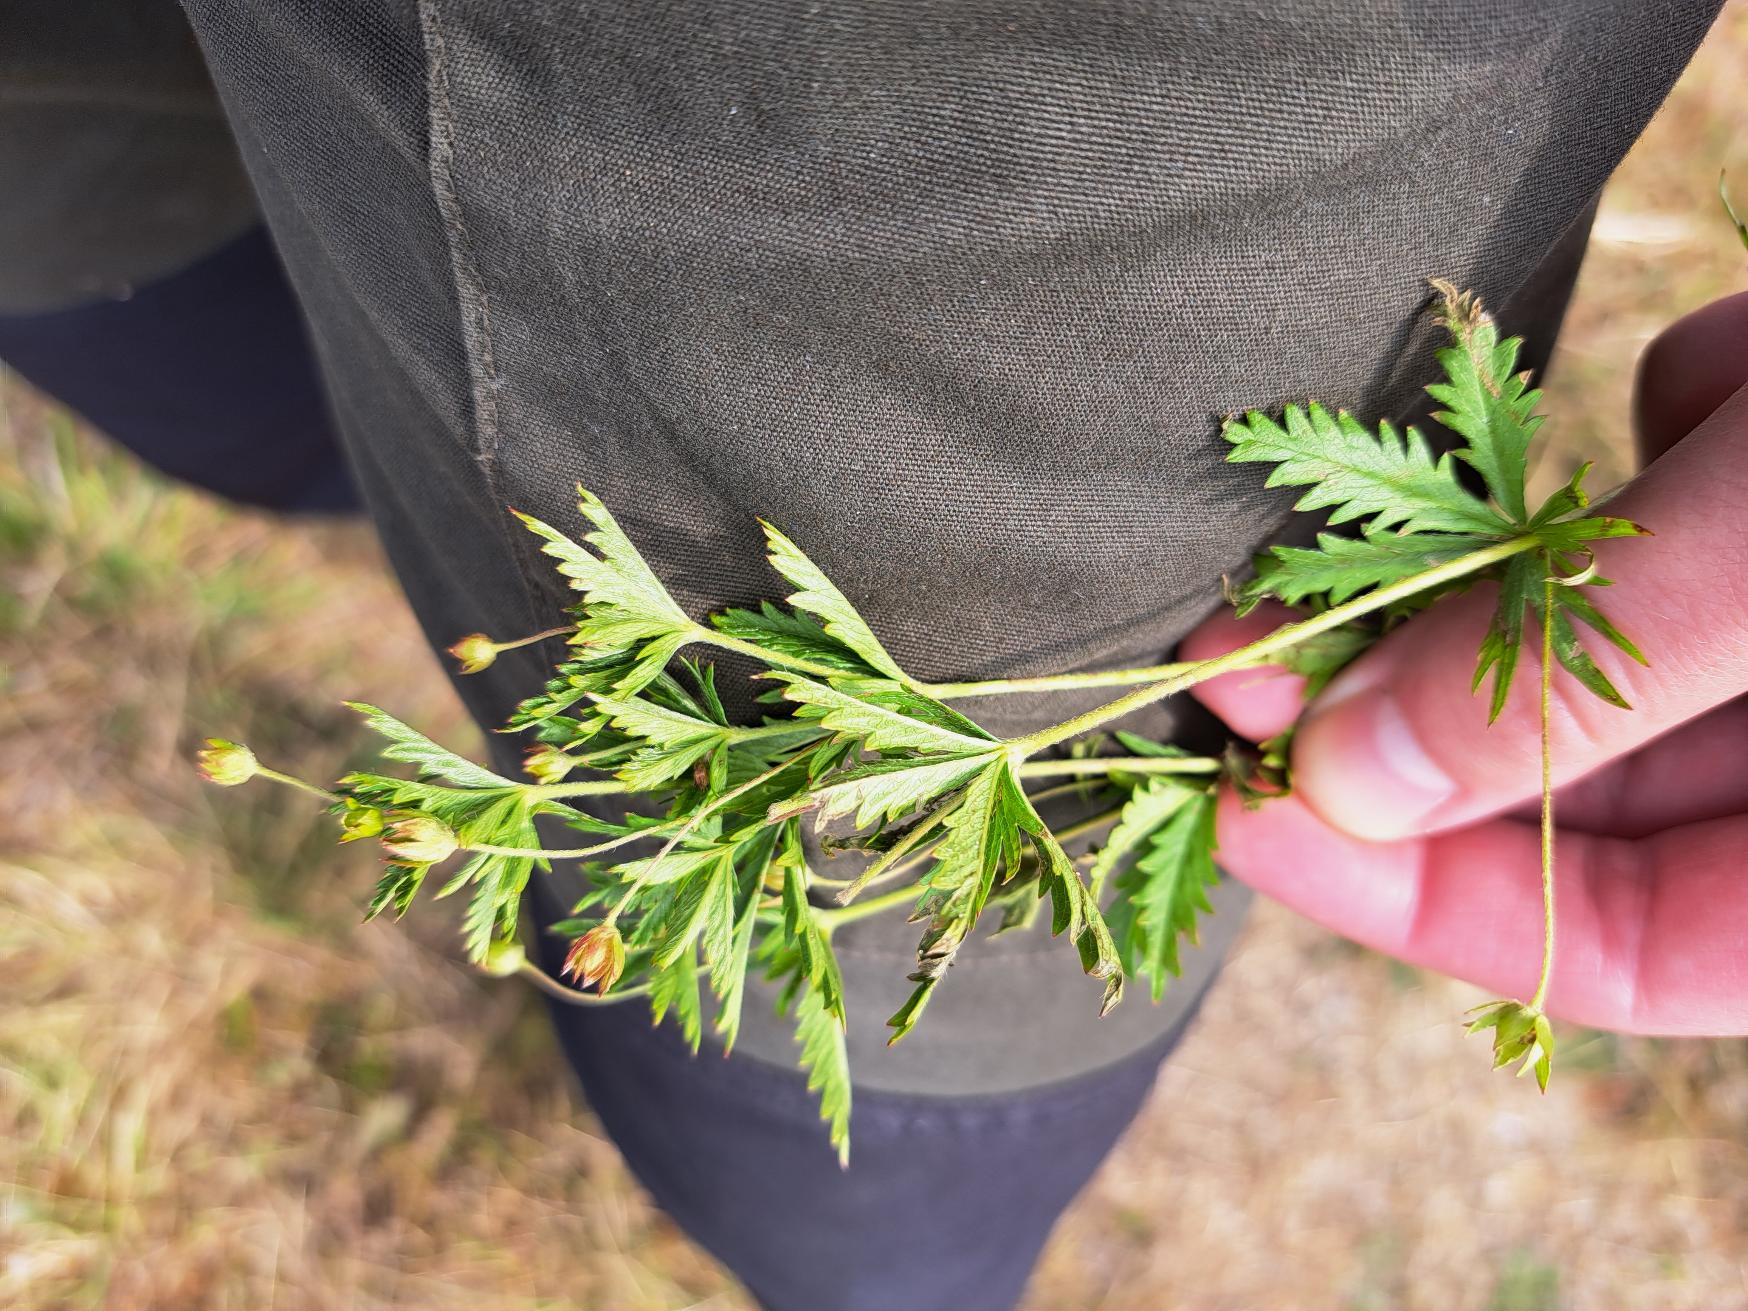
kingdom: Plantae
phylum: Tracheophyta
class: Magnoliopsida
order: Rosales
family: Rosaceae
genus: Potentilla
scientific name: Potentilla erecta
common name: Tormentil
